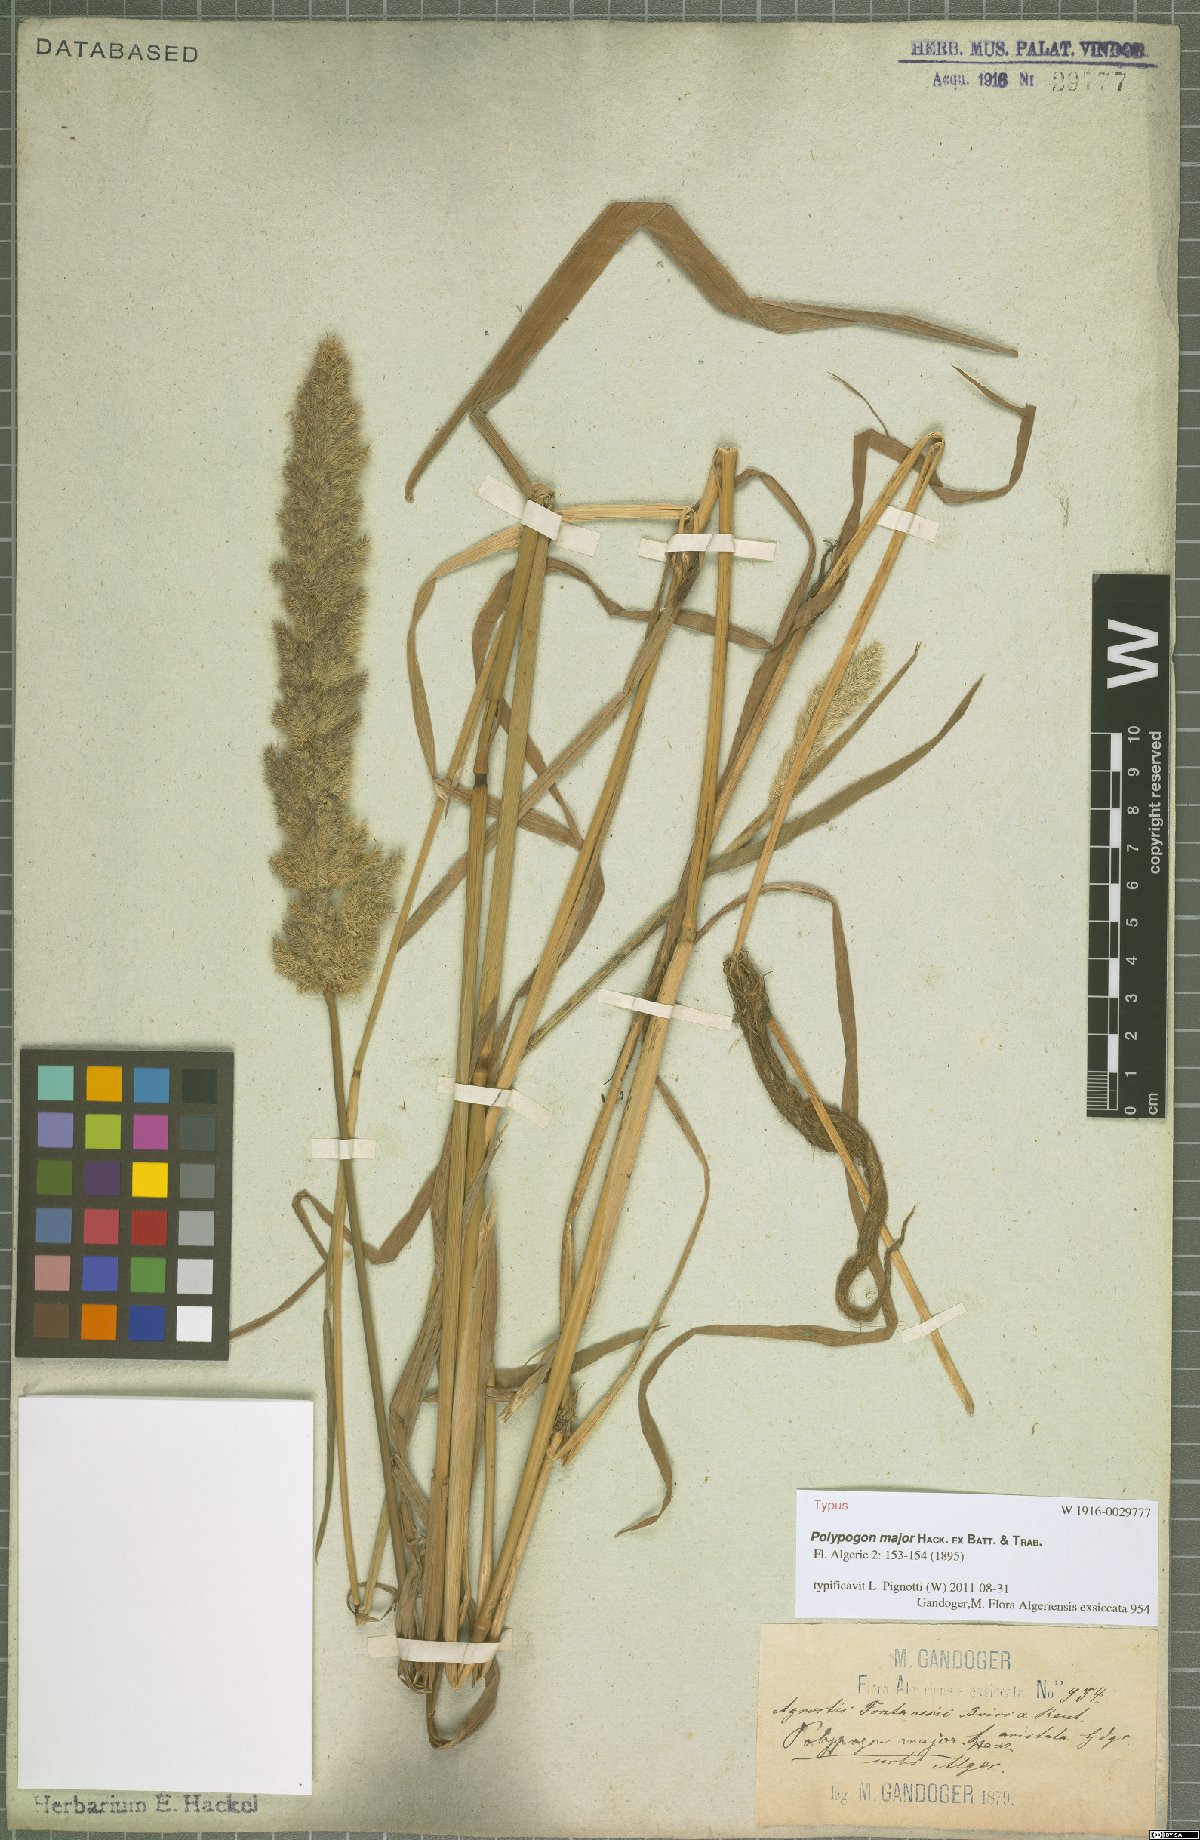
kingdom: Plantae
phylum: Tracheophyta
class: Liliopsida
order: Poales
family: Poaceae
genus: Agropogon
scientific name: Agropogon lutosus
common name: Coast agropogon
